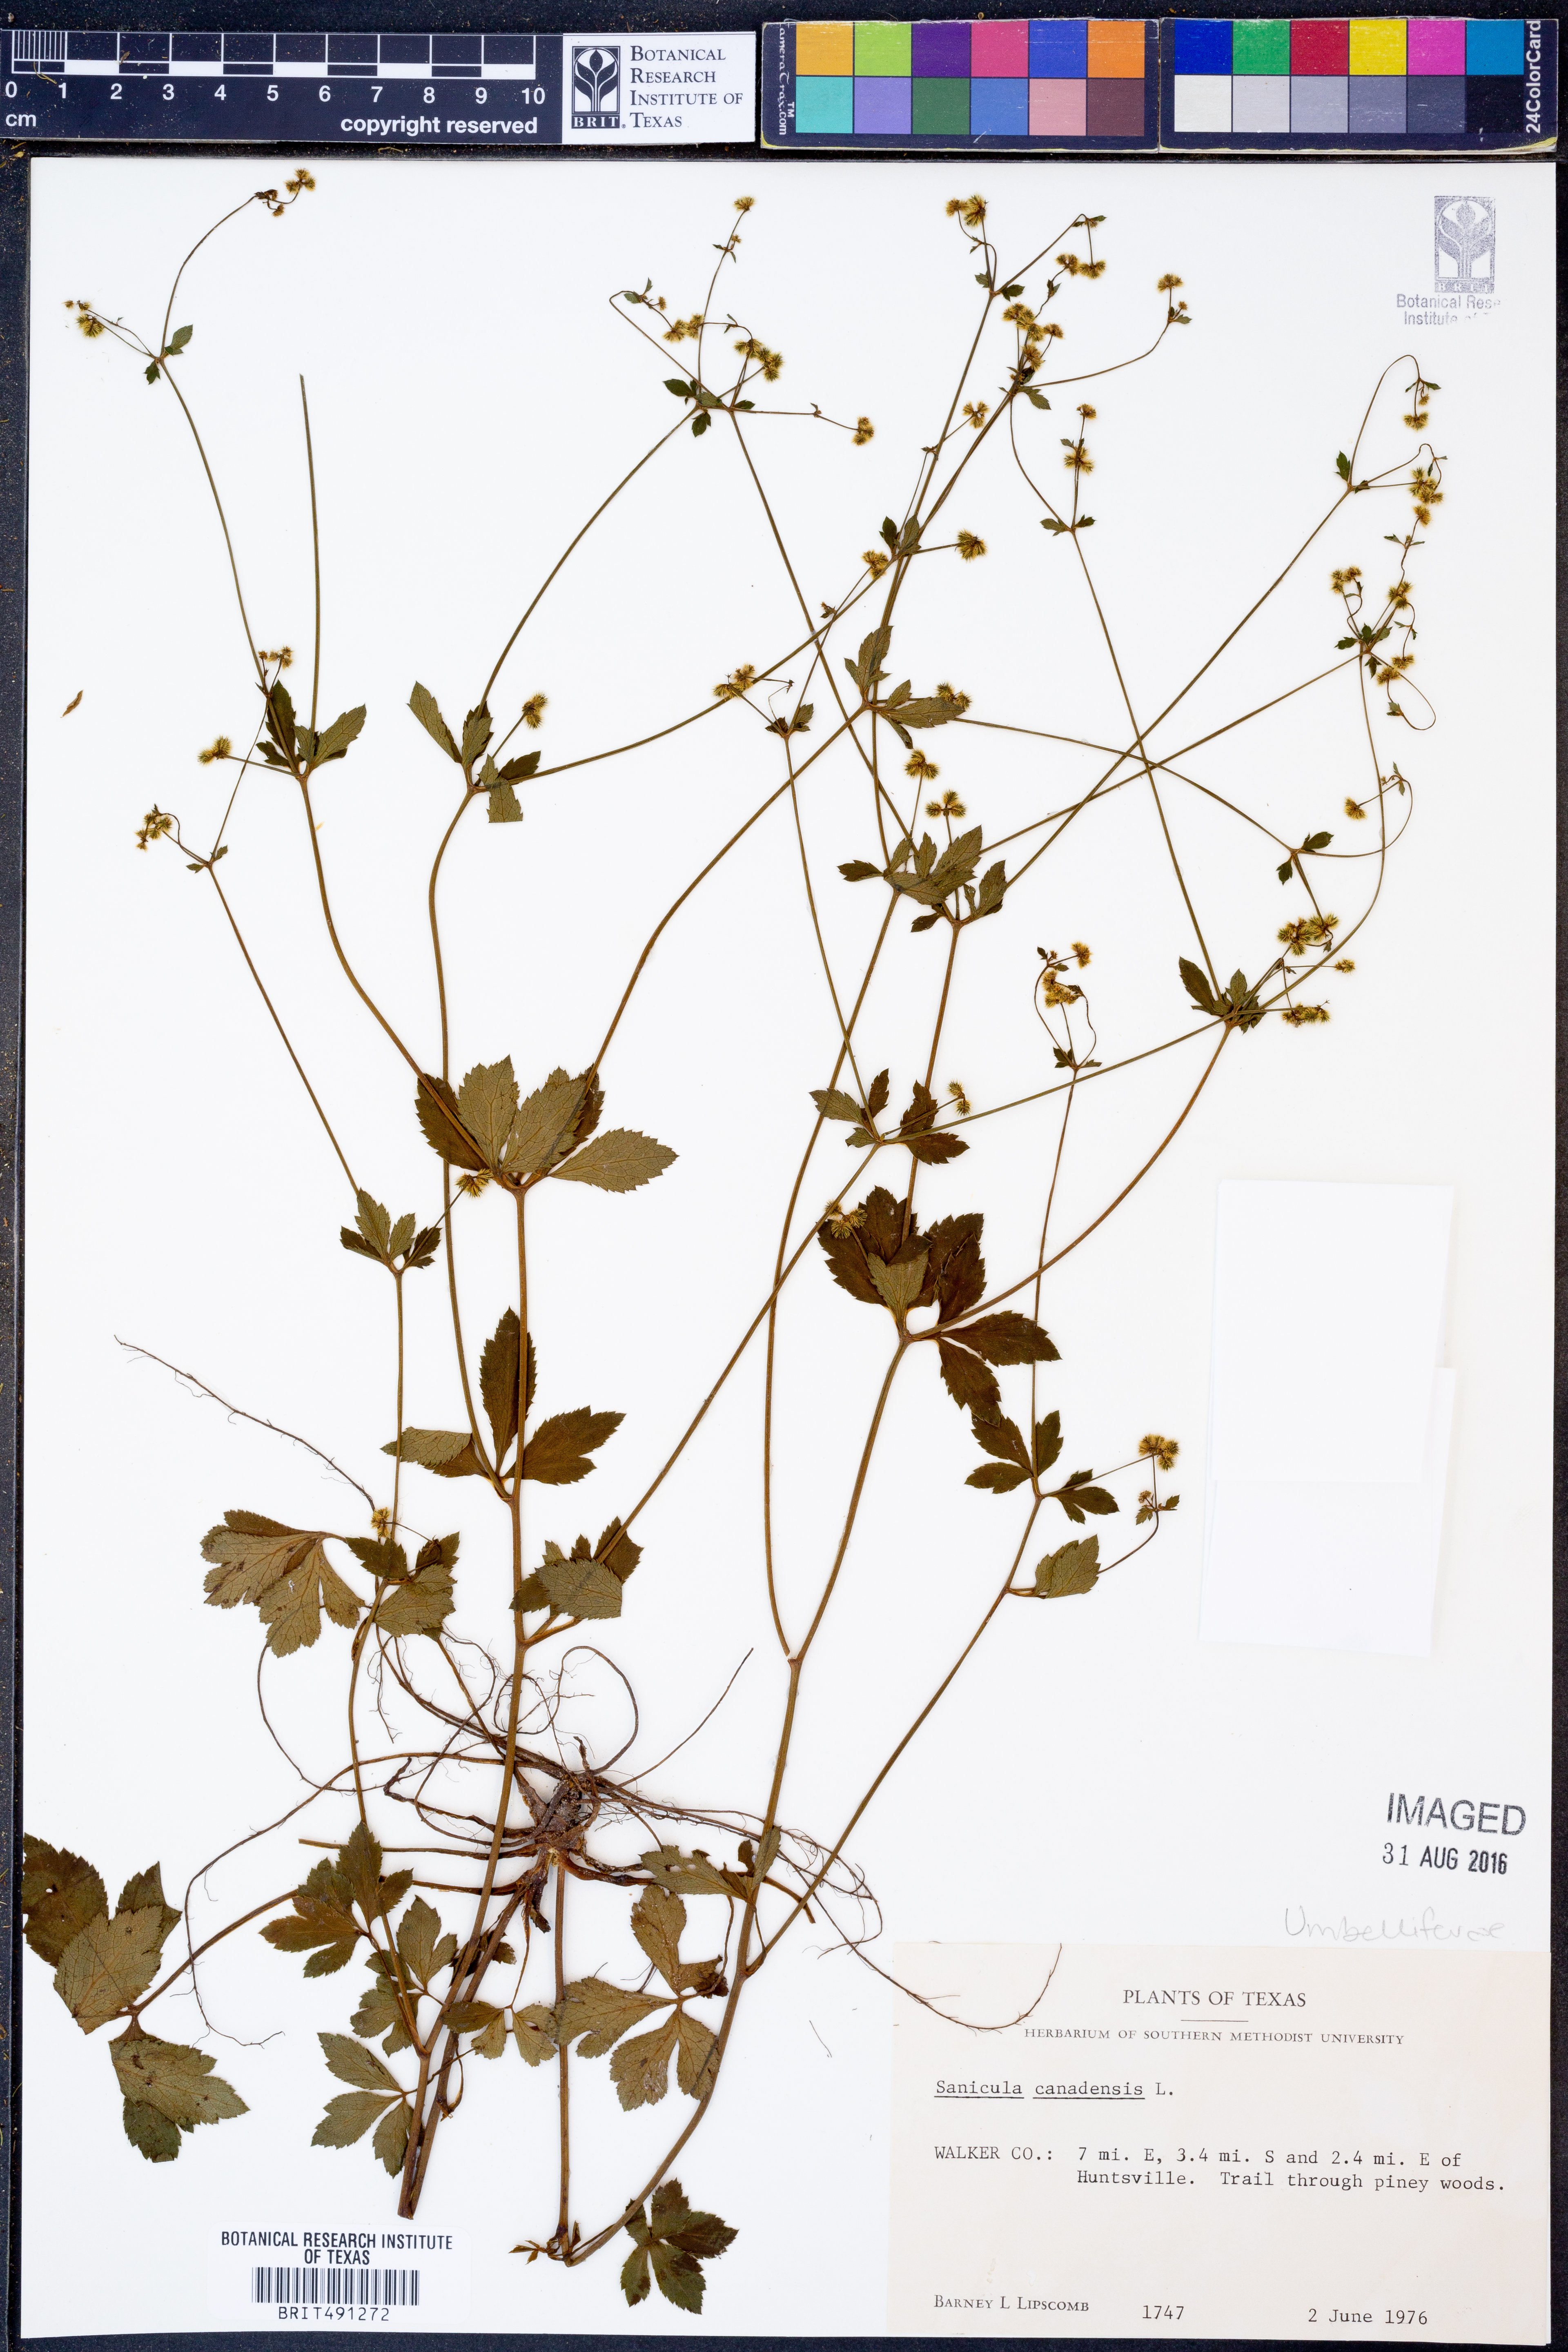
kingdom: Plantae
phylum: Tracheophyta
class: Magnoliopsida
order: Apiales
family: Apiaceae
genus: Sanicula
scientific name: Sanicula canadensis
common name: Canada sanicle
